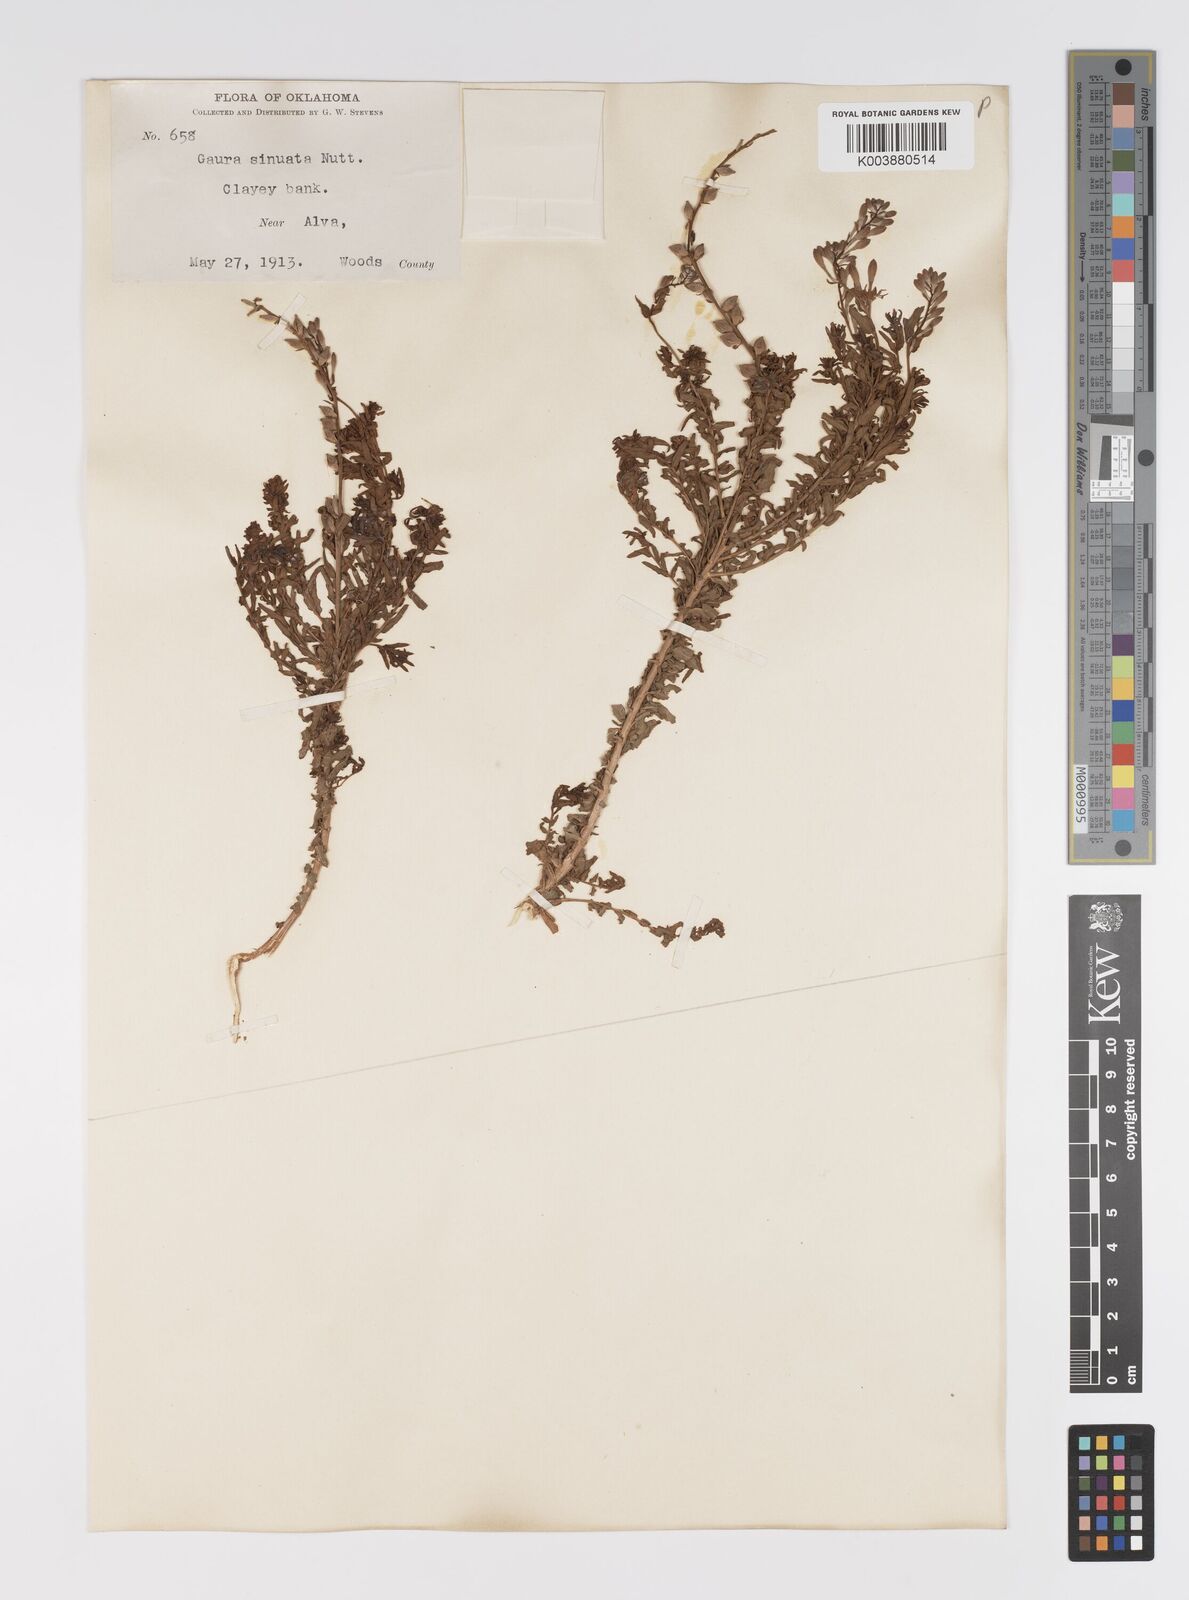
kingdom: Plantae
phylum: Tracheophyta
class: Magnoliopsida
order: Myrtales
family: Onagraceae
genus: Oenothera
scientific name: Oenothera sinuosa
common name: Wavyleaf beeblossom
